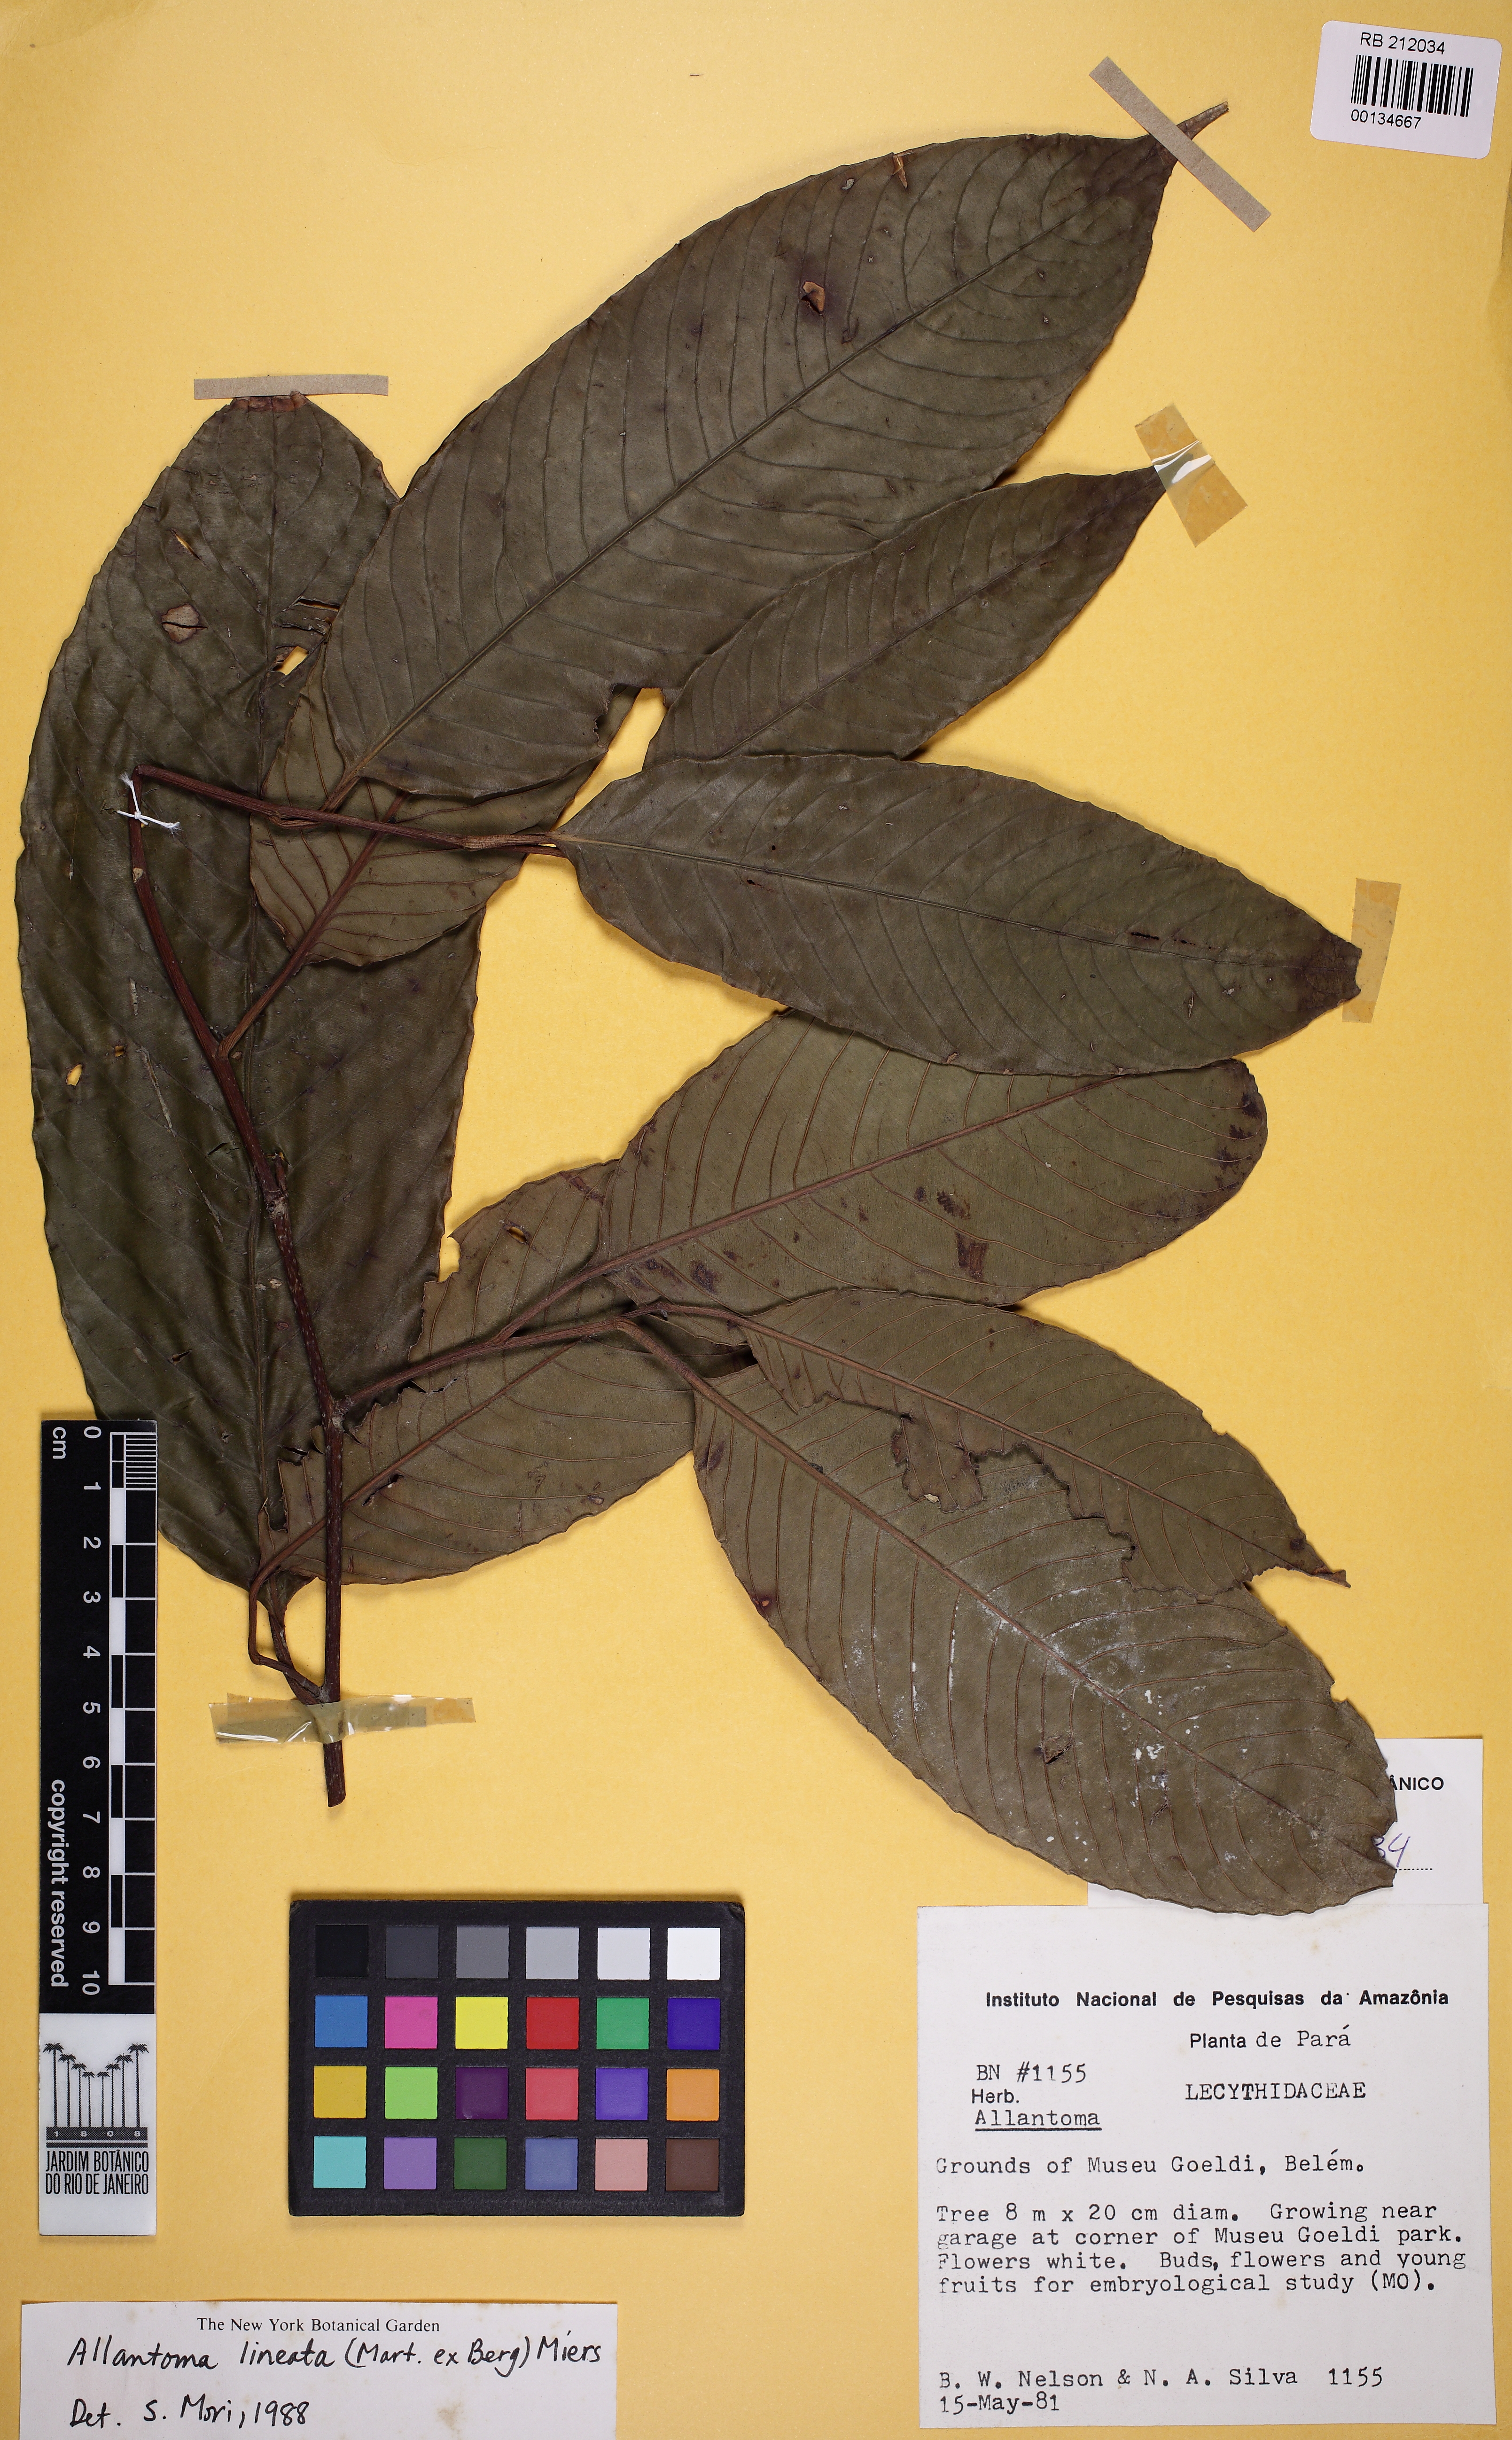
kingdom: Plantae
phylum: Tracheophyta
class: Magnoliopsida
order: Ericales
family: Lecythidaceae
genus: Allantoma
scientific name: Allantoma lineata
